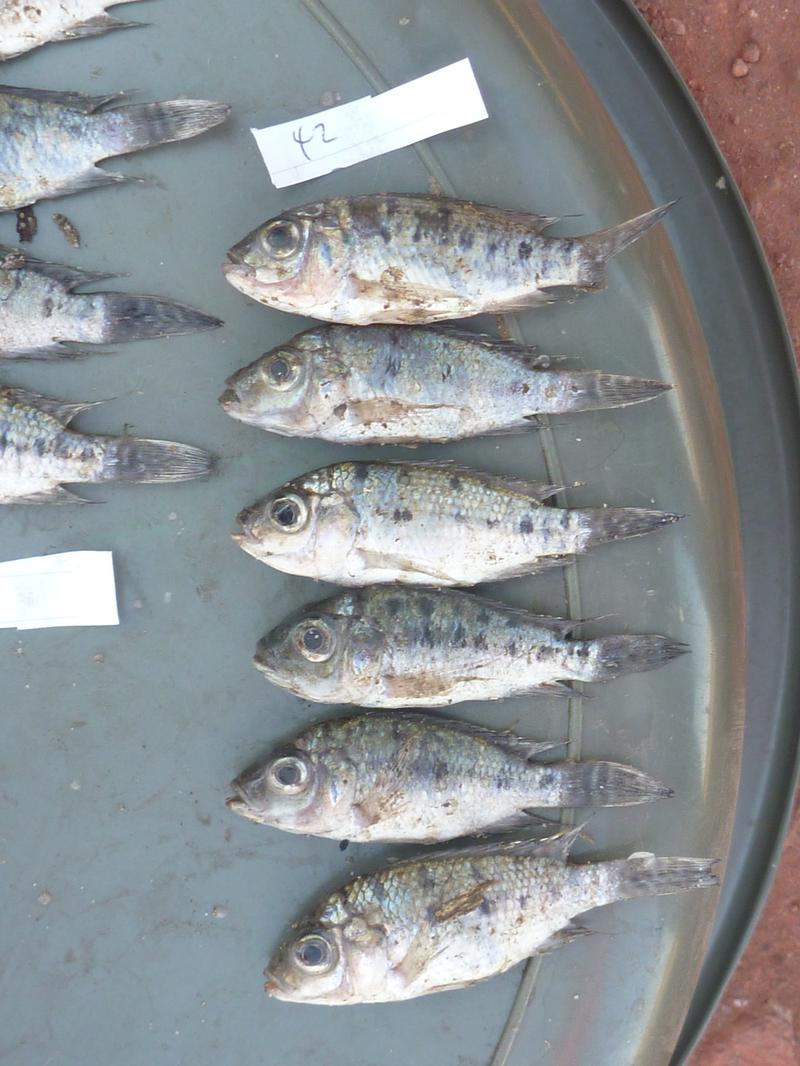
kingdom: Animalia
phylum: Chordata
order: Perciformes
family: Cichlidae
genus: Oreochromis
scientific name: Oreochromis korogwe
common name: Korogwe tilapia
